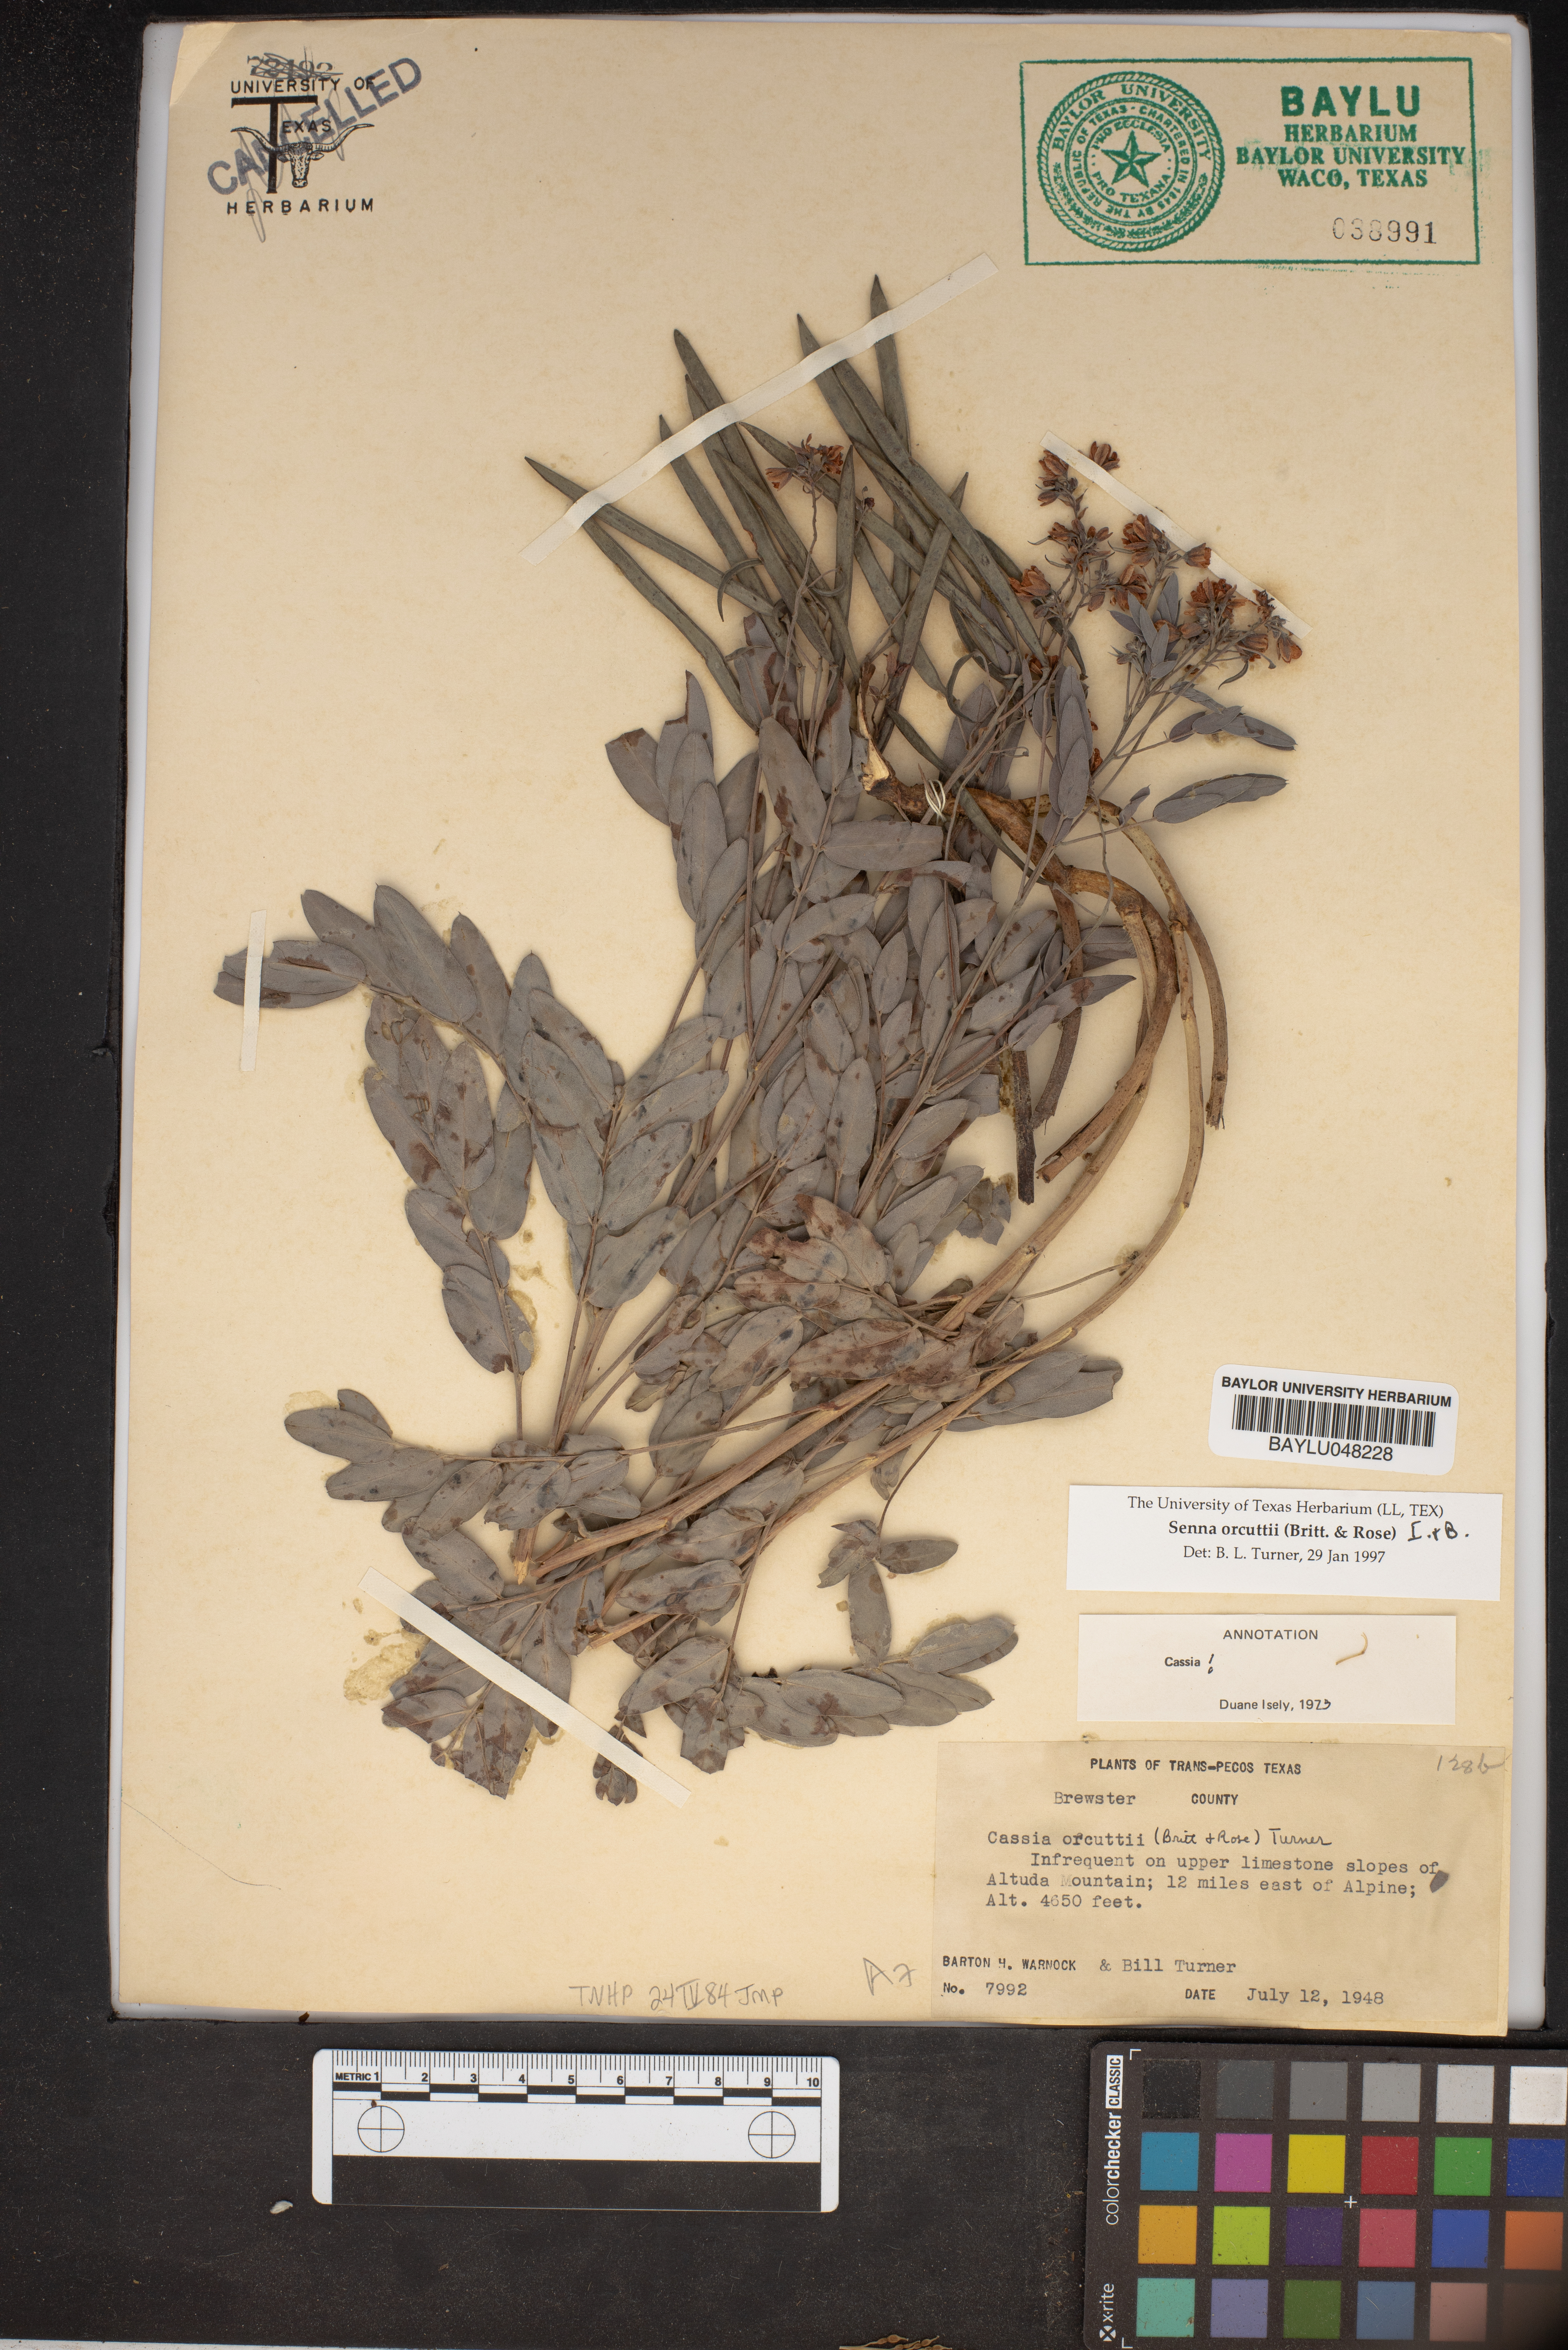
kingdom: Plantae
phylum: Tracheophyta
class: Magnoliopsida
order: Fabales
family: Fabaceae
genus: Senna
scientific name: Senna orcuttii
